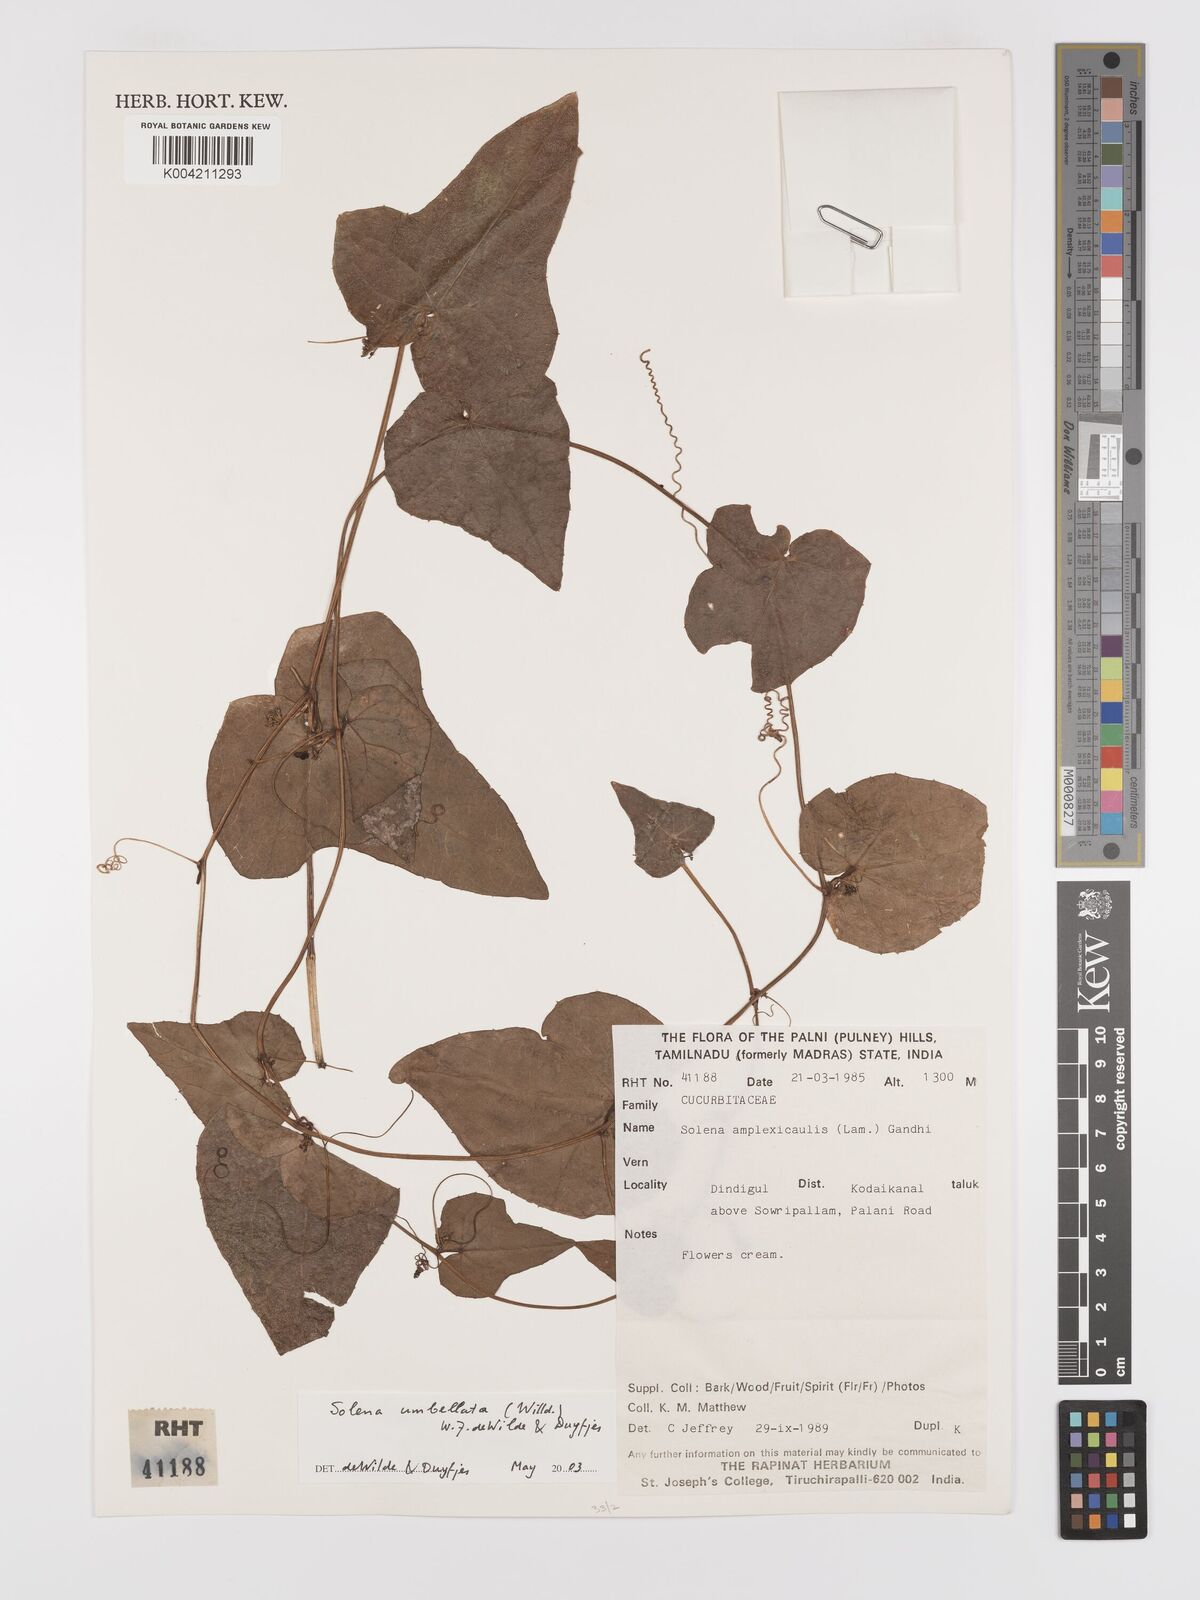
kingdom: Plantae
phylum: Tracheophyta
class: Magnoliopsida
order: Cucurbitales
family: Cucurbitaceae
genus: Solena
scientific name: Solena amplexicaulis
